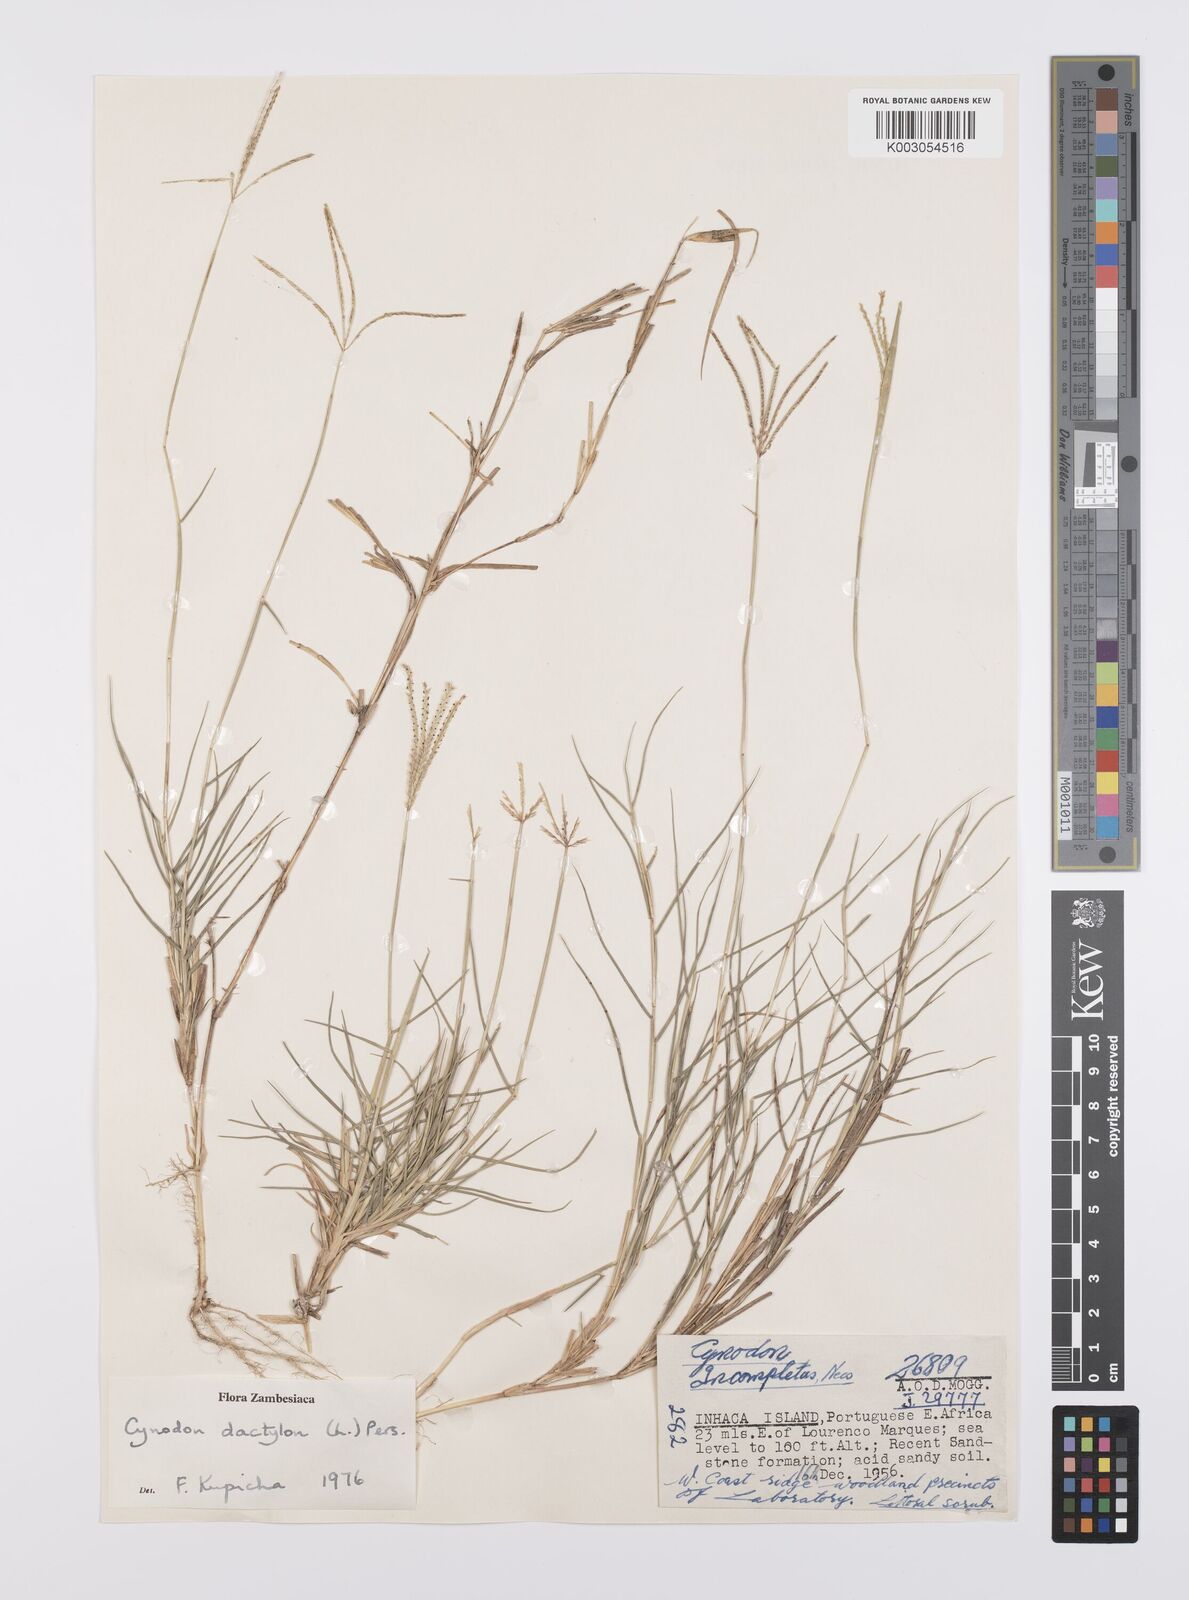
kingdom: Plantae
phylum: Tracheophyta
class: Liliopsida
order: Poales
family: Poaceae
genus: Cynodon
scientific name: Cynodon dactylon
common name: Bermuda grass
